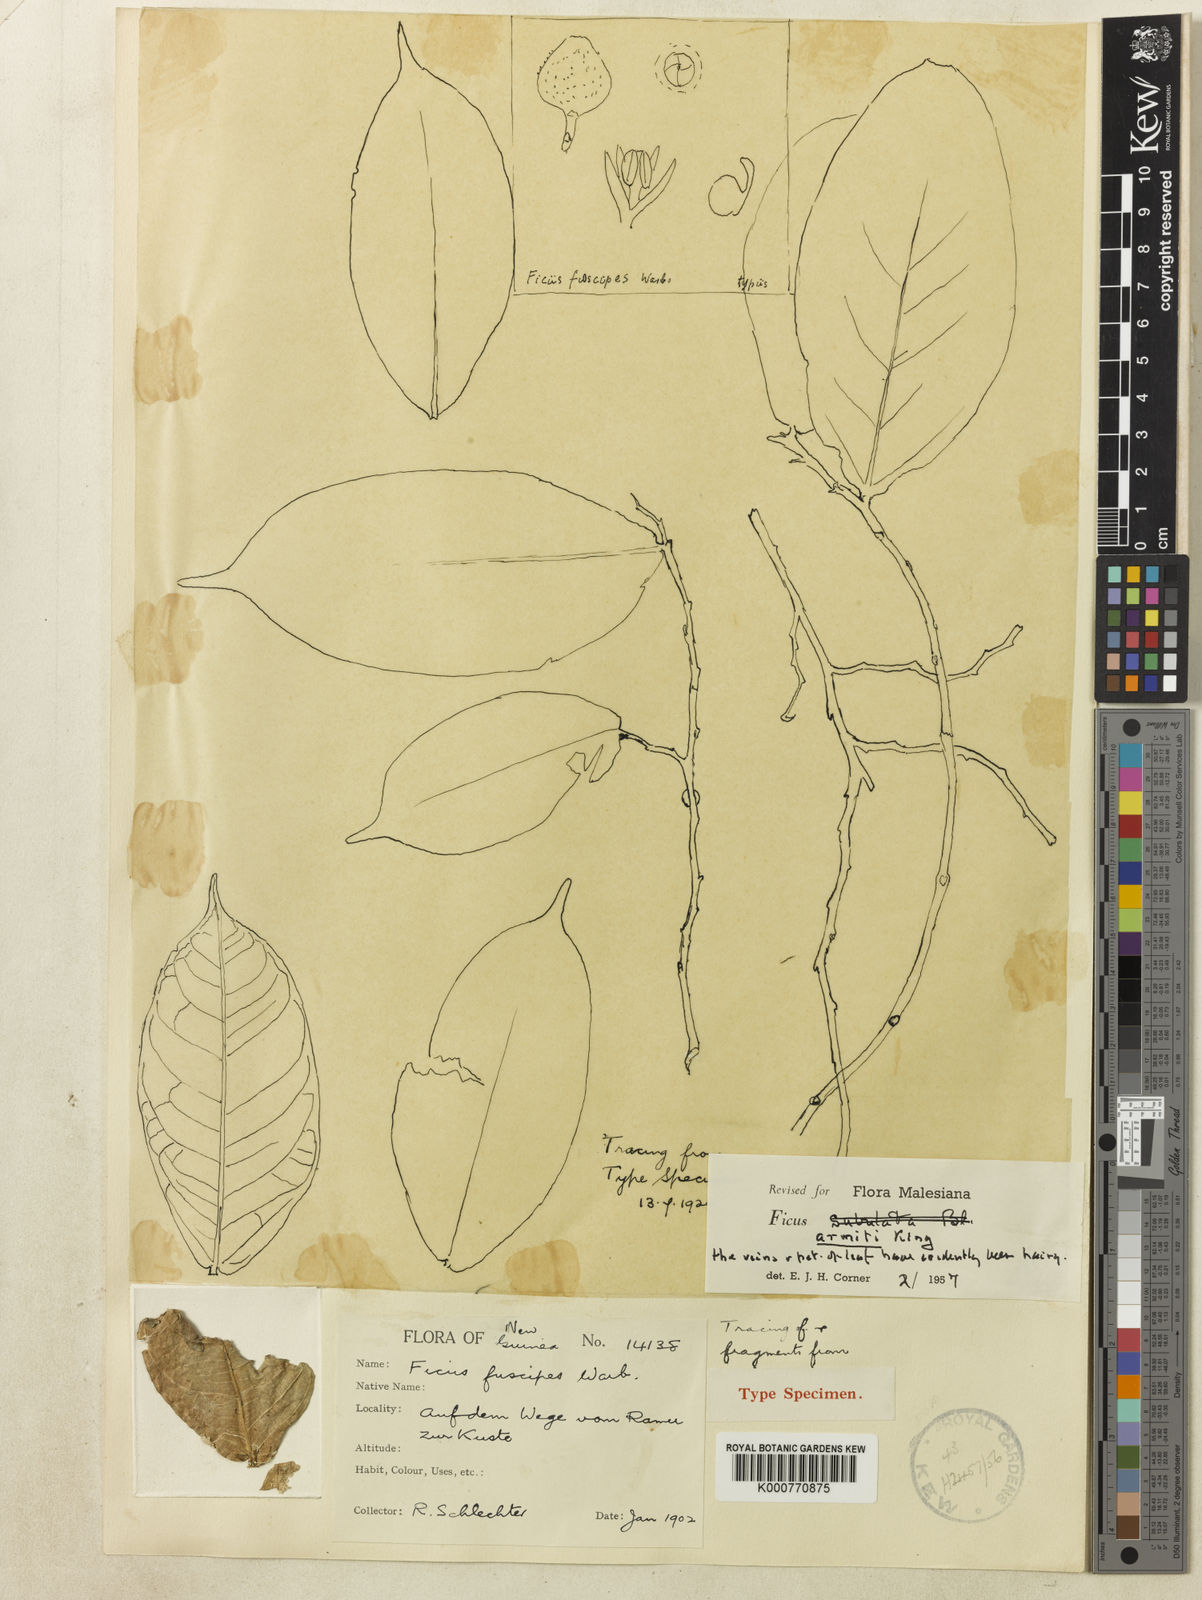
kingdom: Plantae
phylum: Tracheophyta
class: Magnoliopsida
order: Rosales
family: Moraceae
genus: Ficus
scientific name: Ficus armitii
